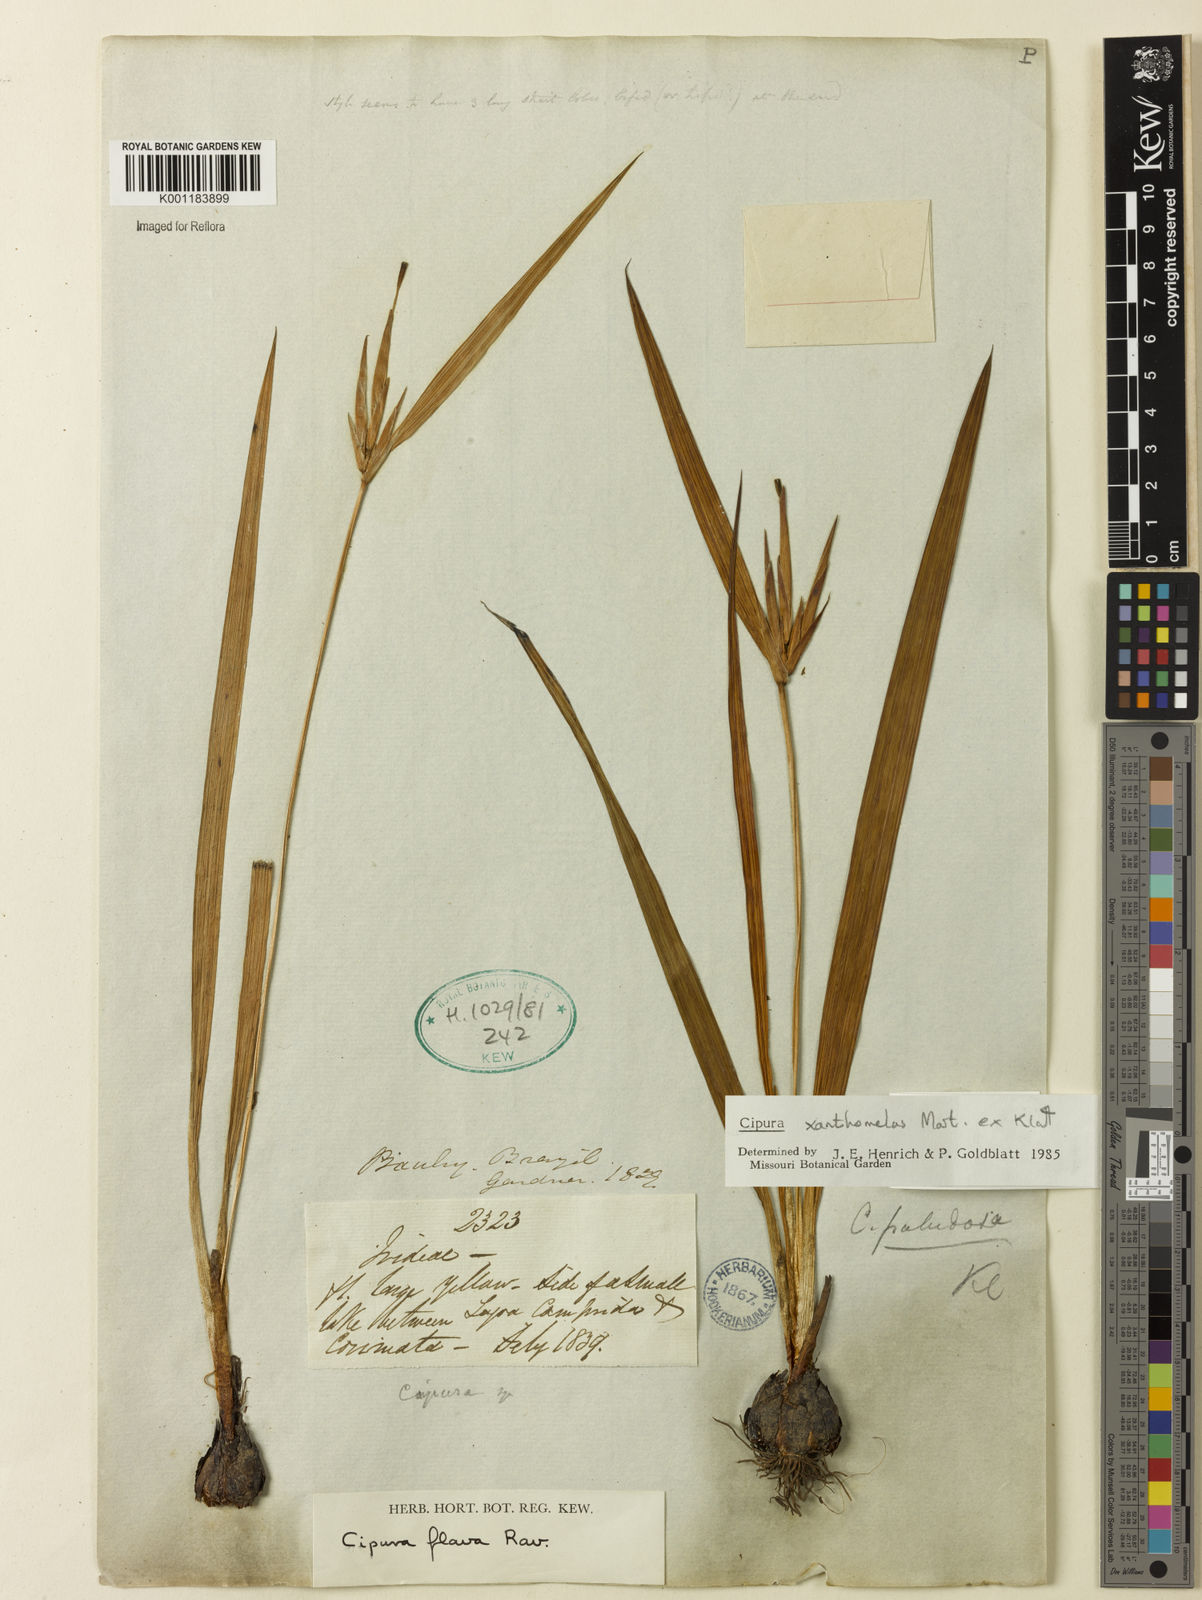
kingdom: Plantae
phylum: Tracheophyta
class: Liliopsida
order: Asparagales
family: Iridaceae
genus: Cipura
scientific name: Cipura xanthomelas
